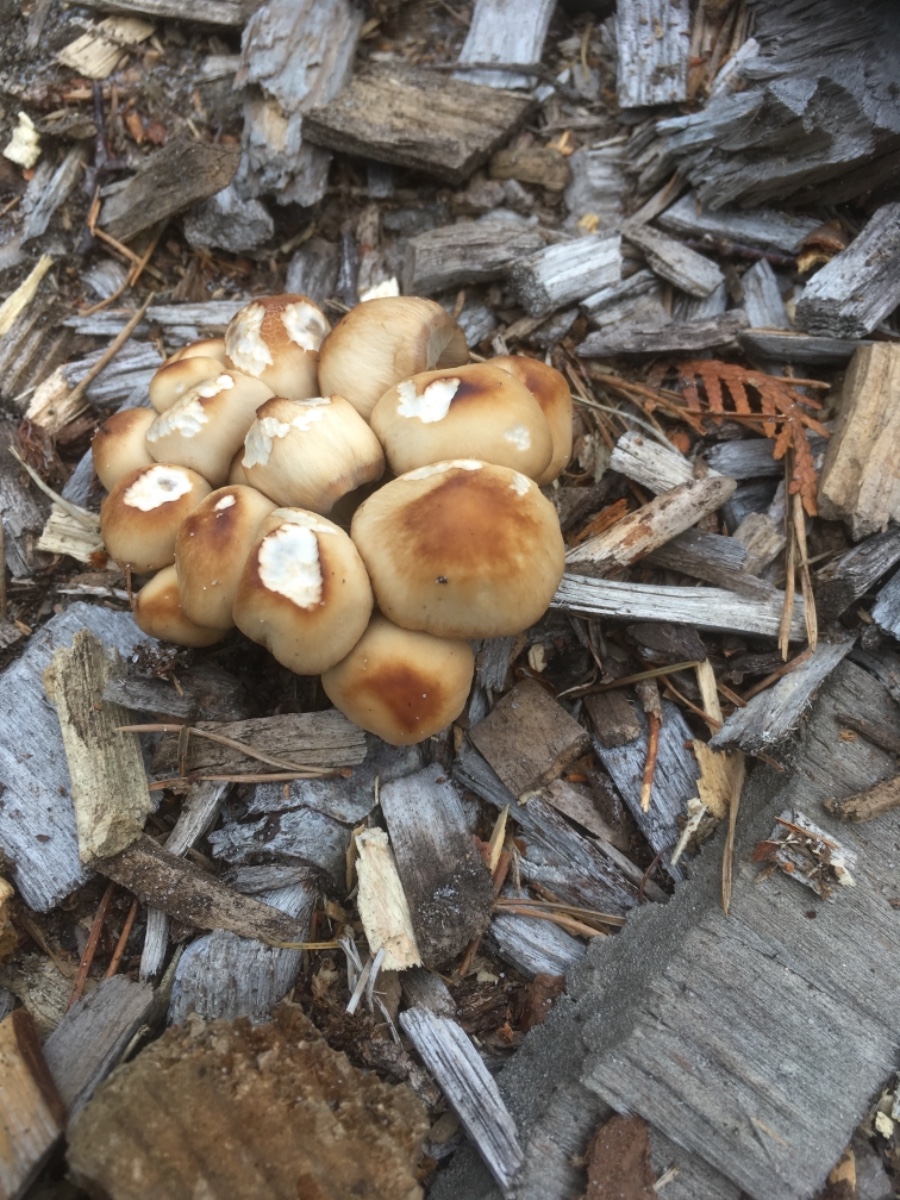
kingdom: Fungi
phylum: Basidiomycota
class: Agaricomycetes
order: Agaricales
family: Psathyrellaceae
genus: Psathyrella
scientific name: Psathyrella piluliformis
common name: lysstokket mørkhat
